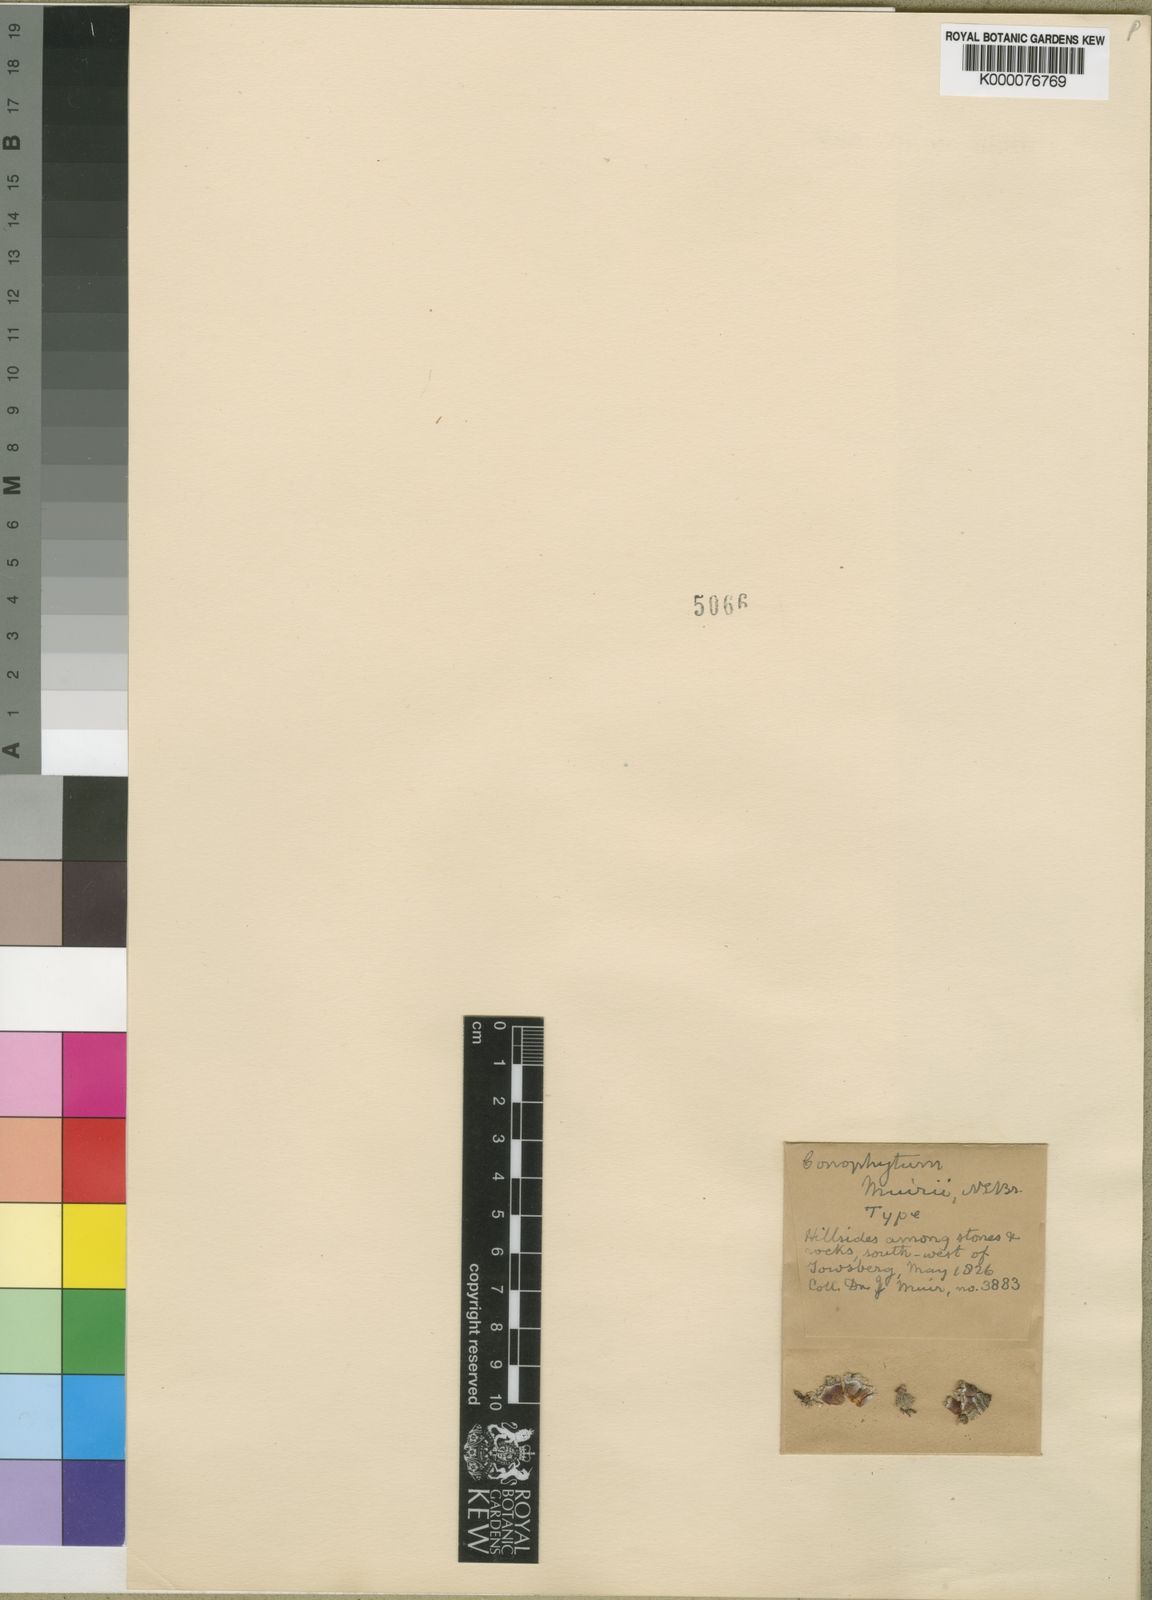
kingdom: Plantae
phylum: Tracheophyta
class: Magnoliopsida
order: Caryophyllales
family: Aizoaceae
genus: Conophytum
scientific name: Conophytum truncatum
